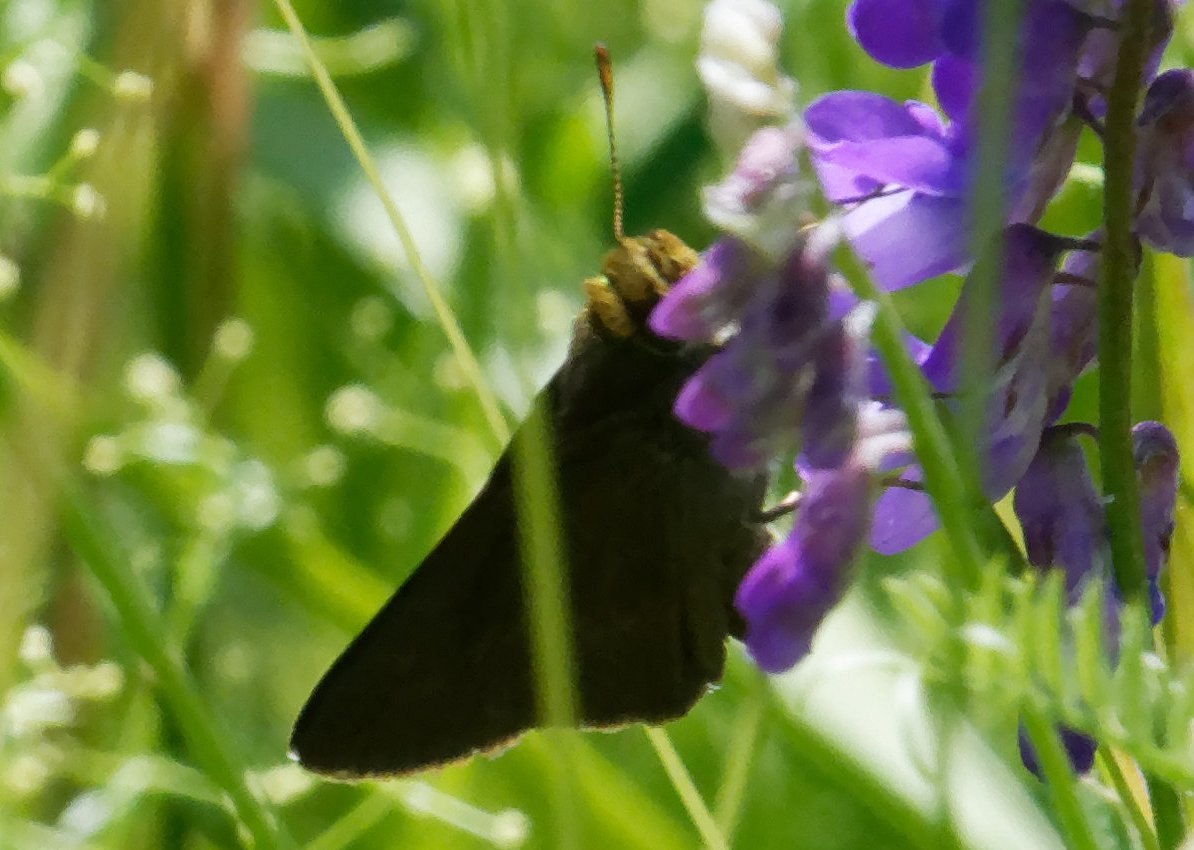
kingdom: Animalia
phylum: Arthropoda
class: Insecta
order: Lepidoptera
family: Hesperiidae
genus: Euphyes
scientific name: Euphyes vestris
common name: Dun Skipper
